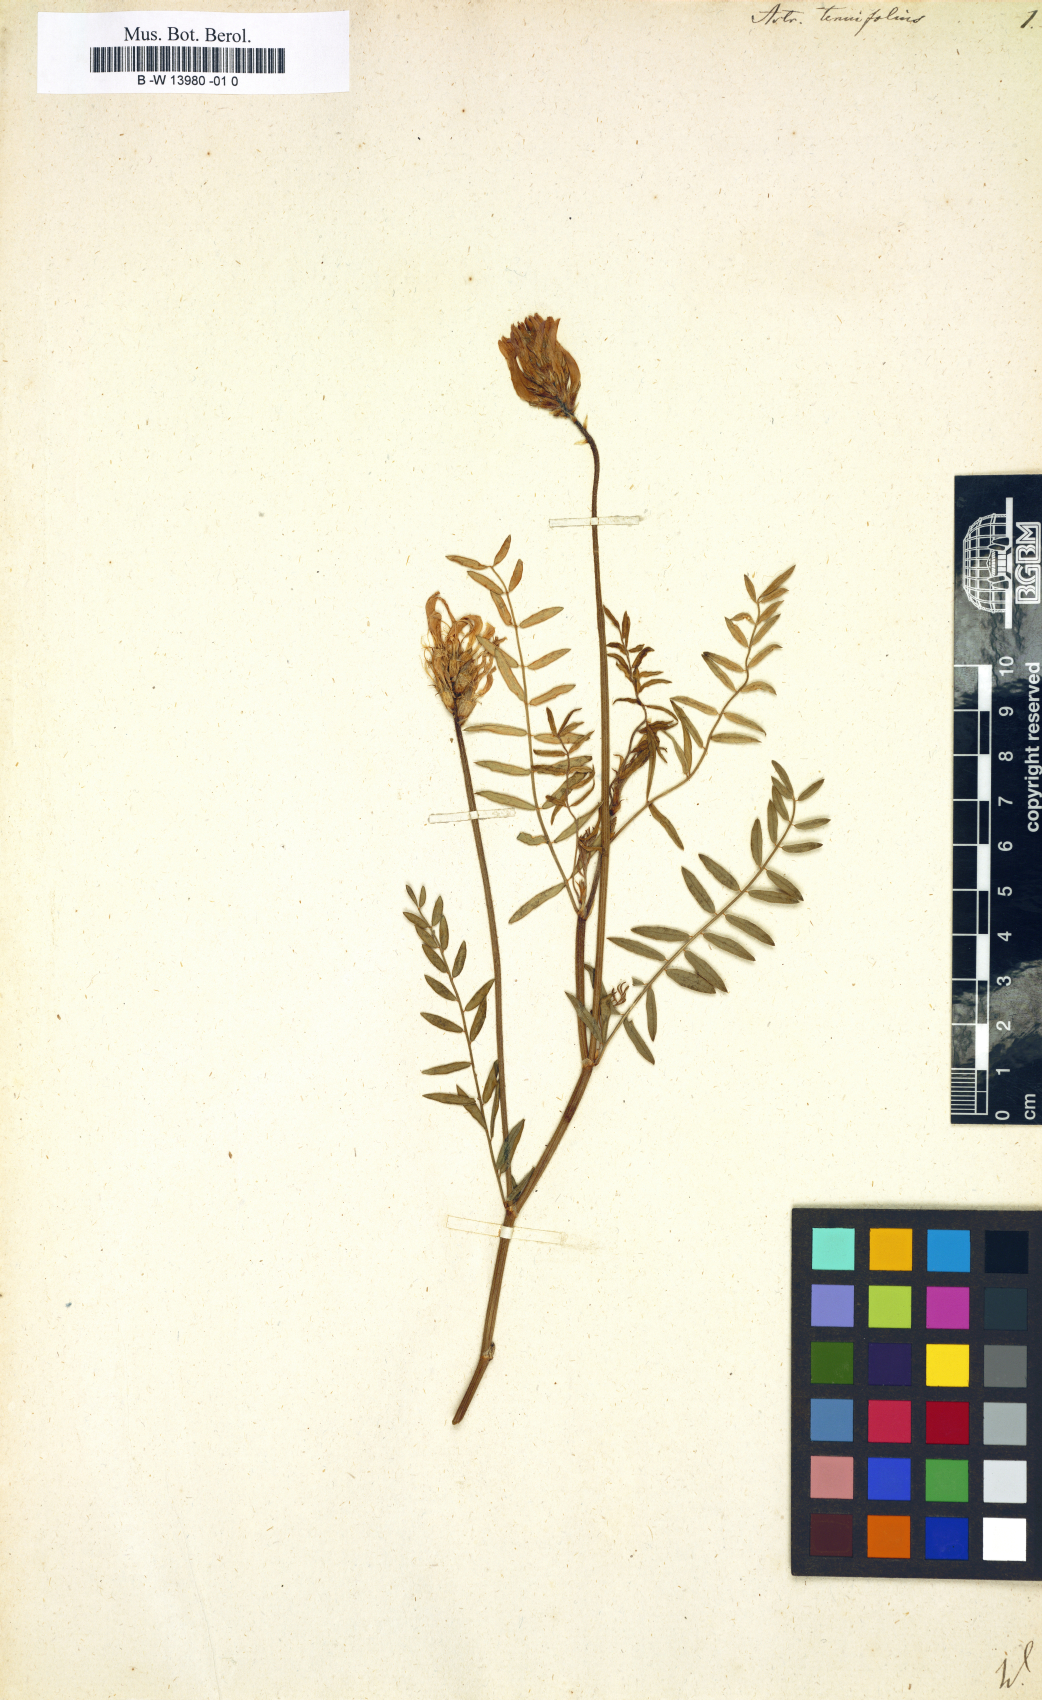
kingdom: Plantae
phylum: Tracheophyta
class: Magnoliopsida
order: Fabales
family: Fabaceae
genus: Astragalus
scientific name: Astragalus
